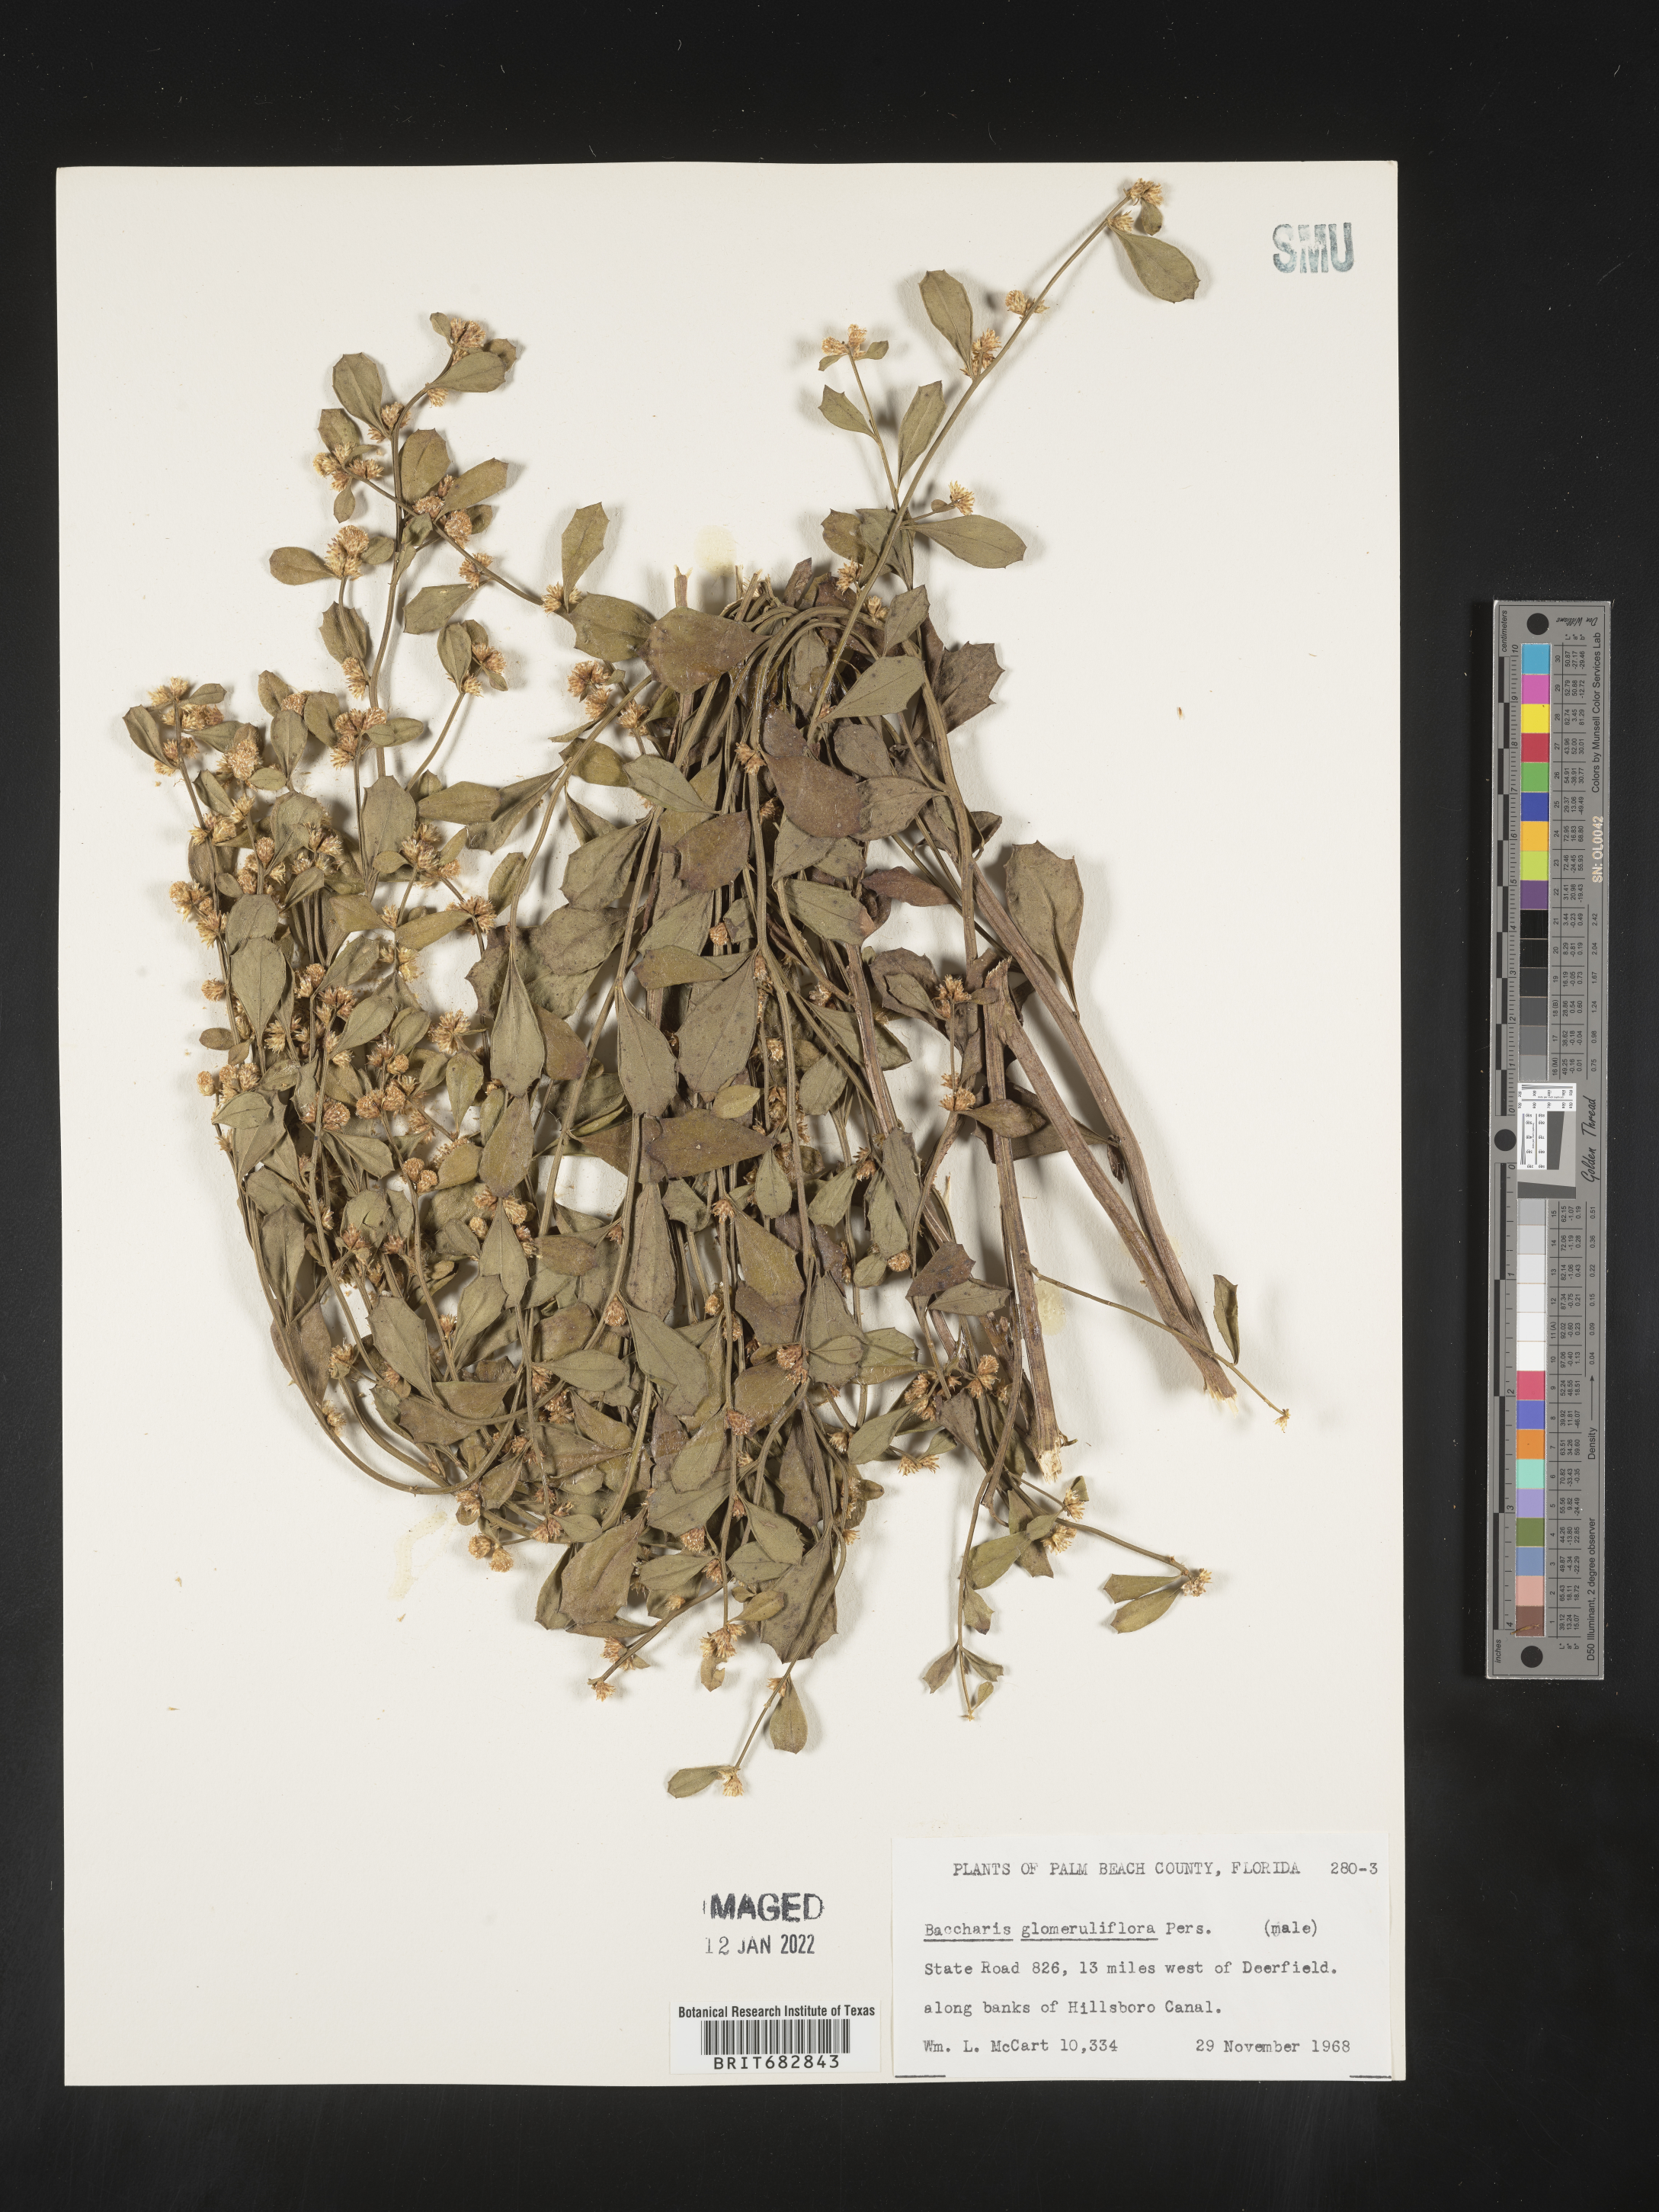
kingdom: Plantae
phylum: Tracheophyta
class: Magnoliopsida
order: Asterales
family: Asteraceae
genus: Baccharis
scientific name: Baccharis glomeruliflora
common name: Silverling groundsel bush
